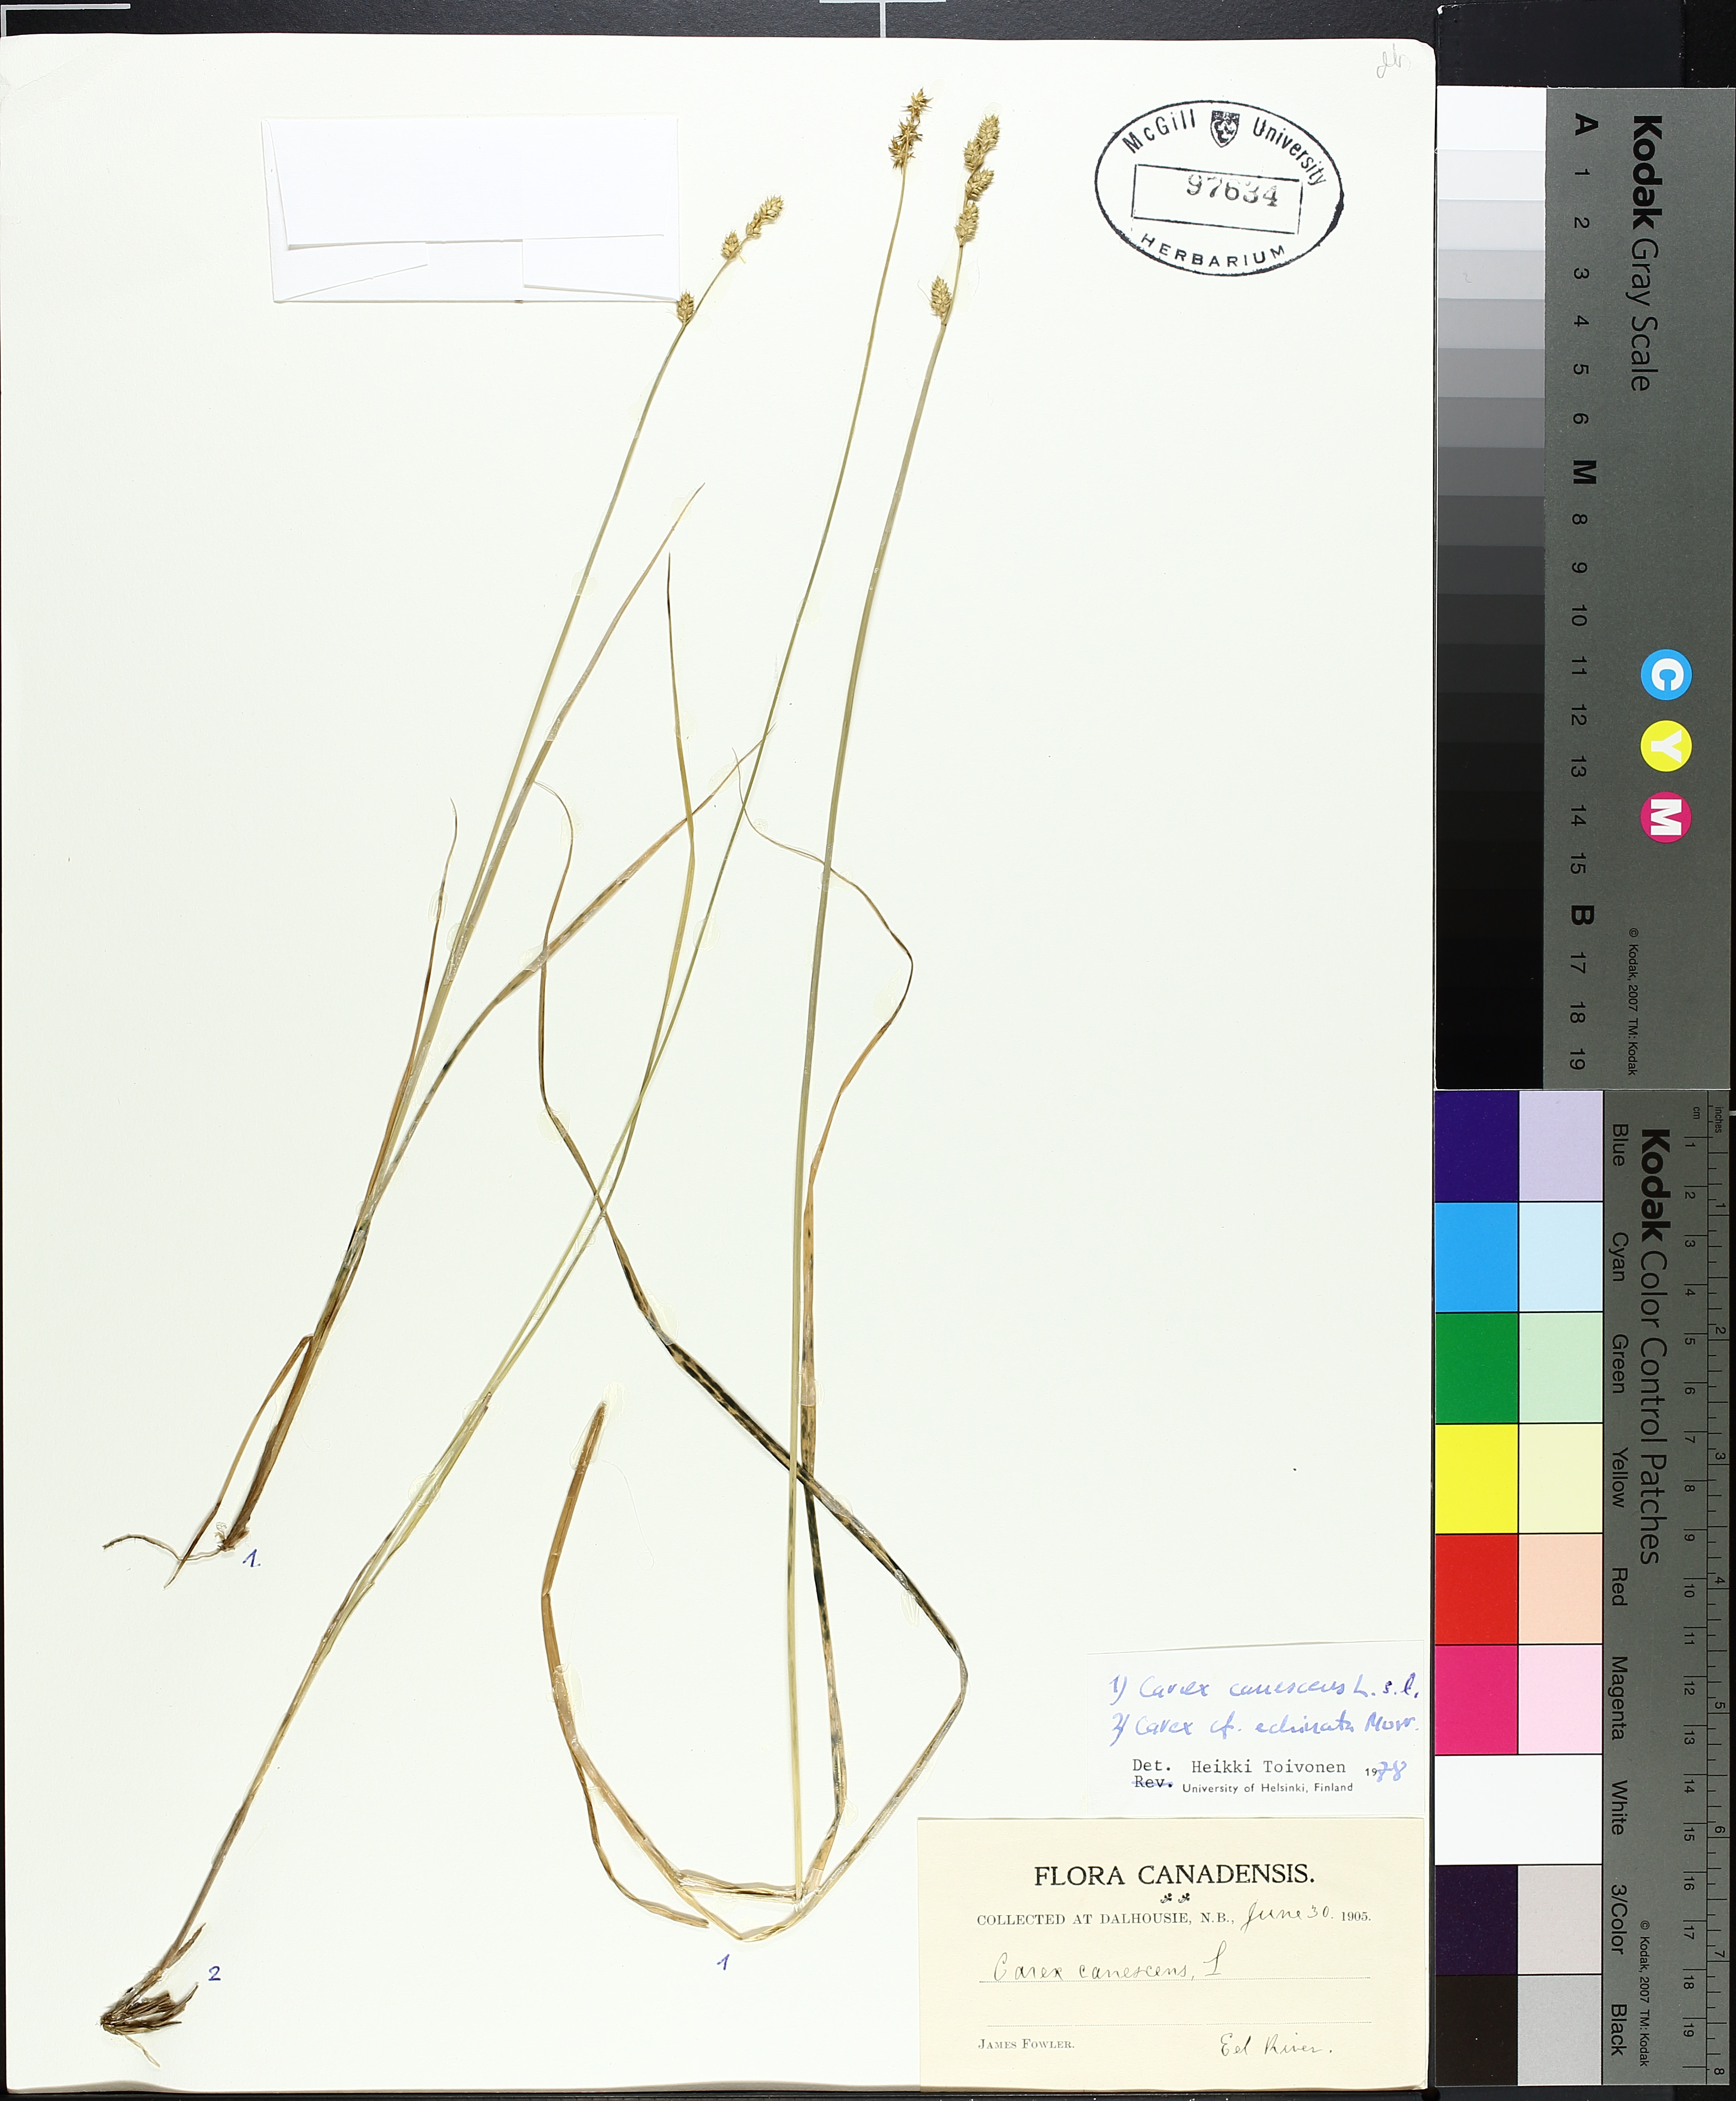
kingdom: Plantae
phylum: Tracheophyta
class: Liliopsida
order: Poales
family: Cyperaceae
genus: Carex
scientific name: Carex canescens
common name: White sedge
